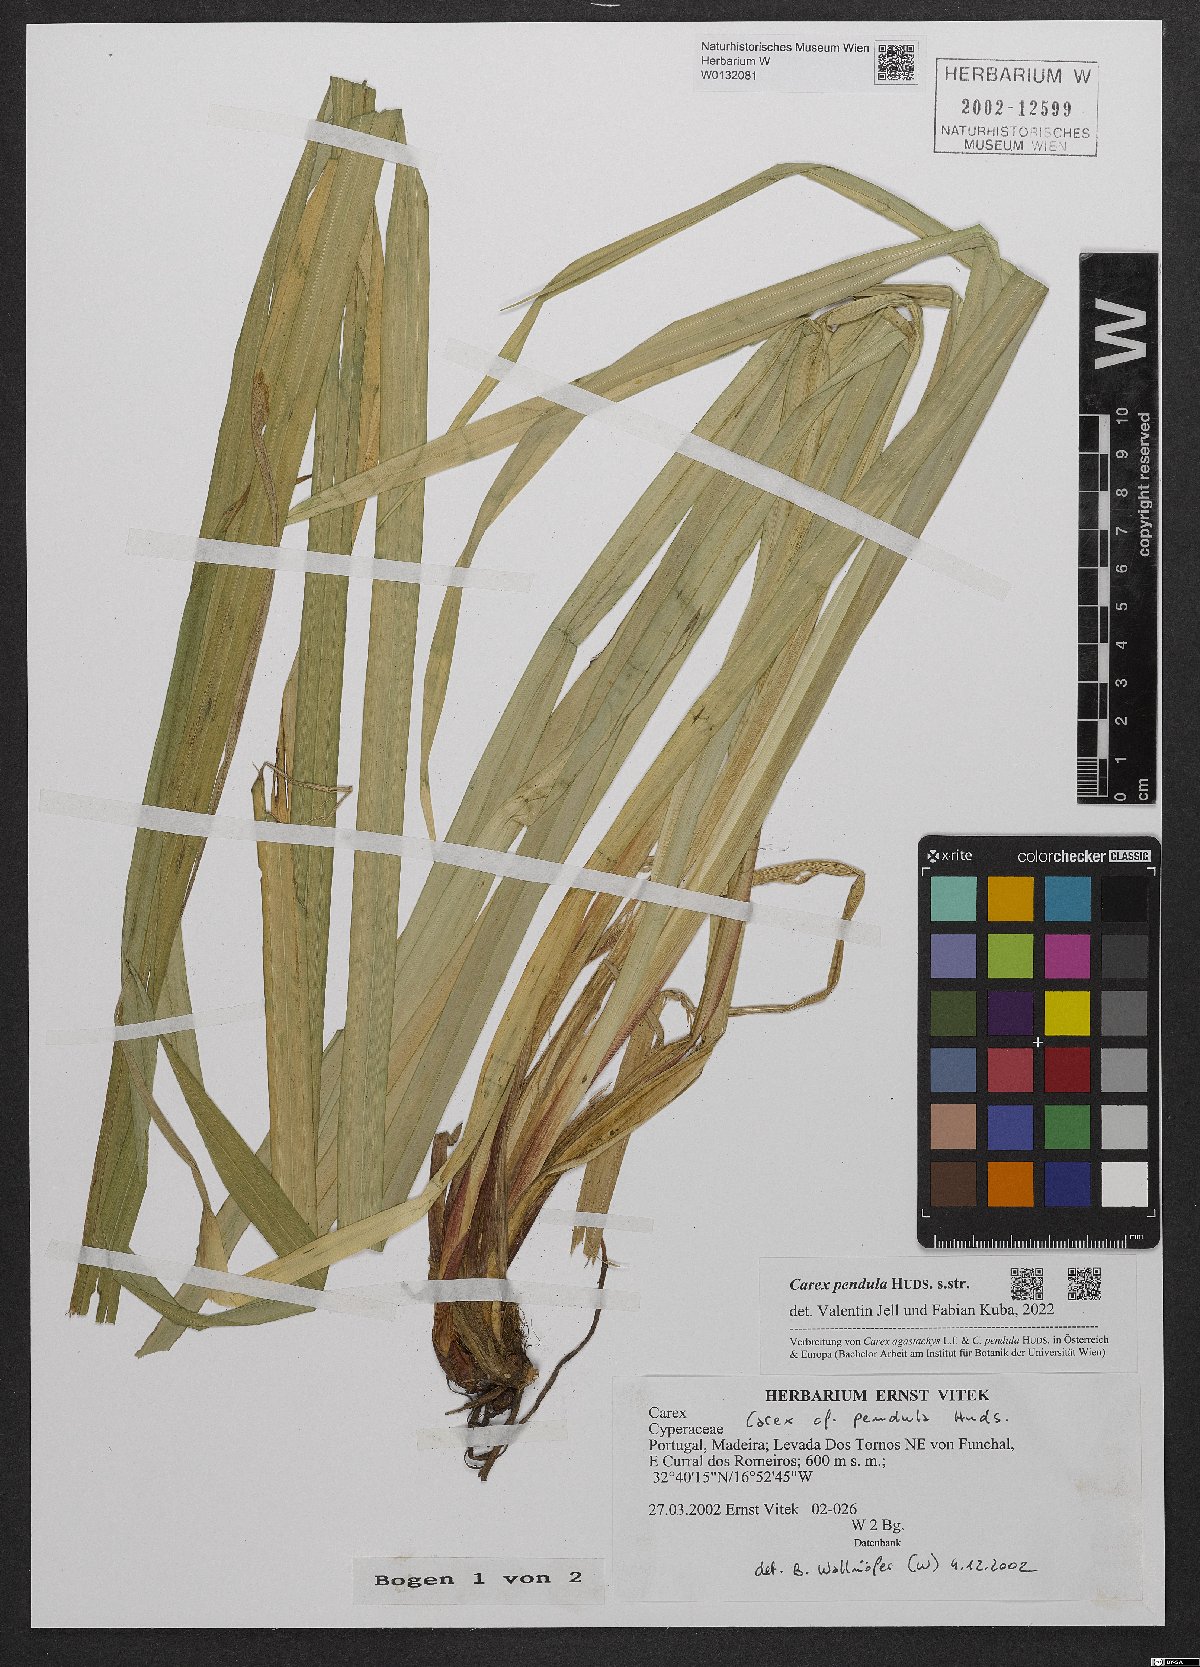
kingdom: Plantae
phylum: Tracheophyta
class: Liliopsida
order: Poales
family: Cyperaceae
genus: Carex
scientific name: Carex pendula
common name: Pendulous sedge
